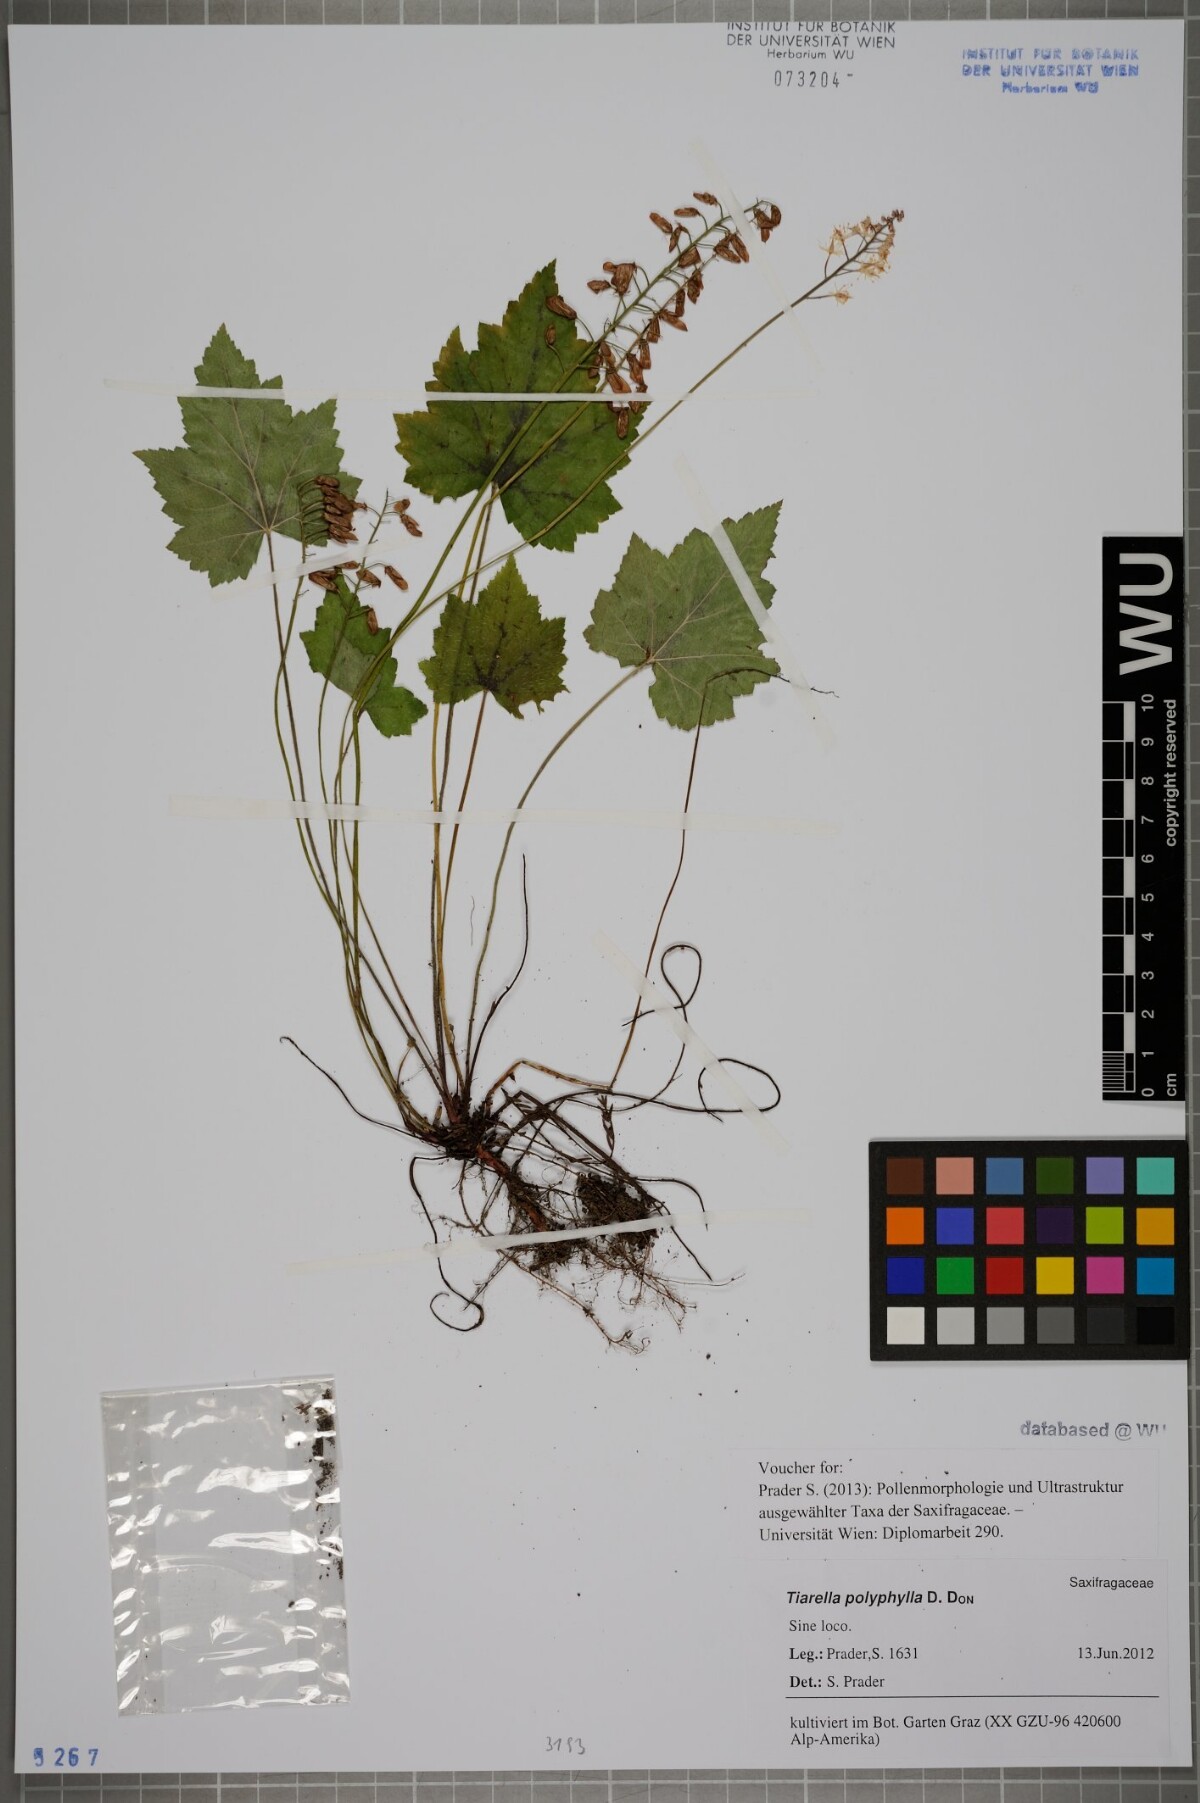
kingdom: Plantae
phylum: Tracheophyta
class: Magnoliopsida
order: Saxifragales
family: Saxifragaceae
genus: Tiarella
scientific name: Tiarella polyphylla
